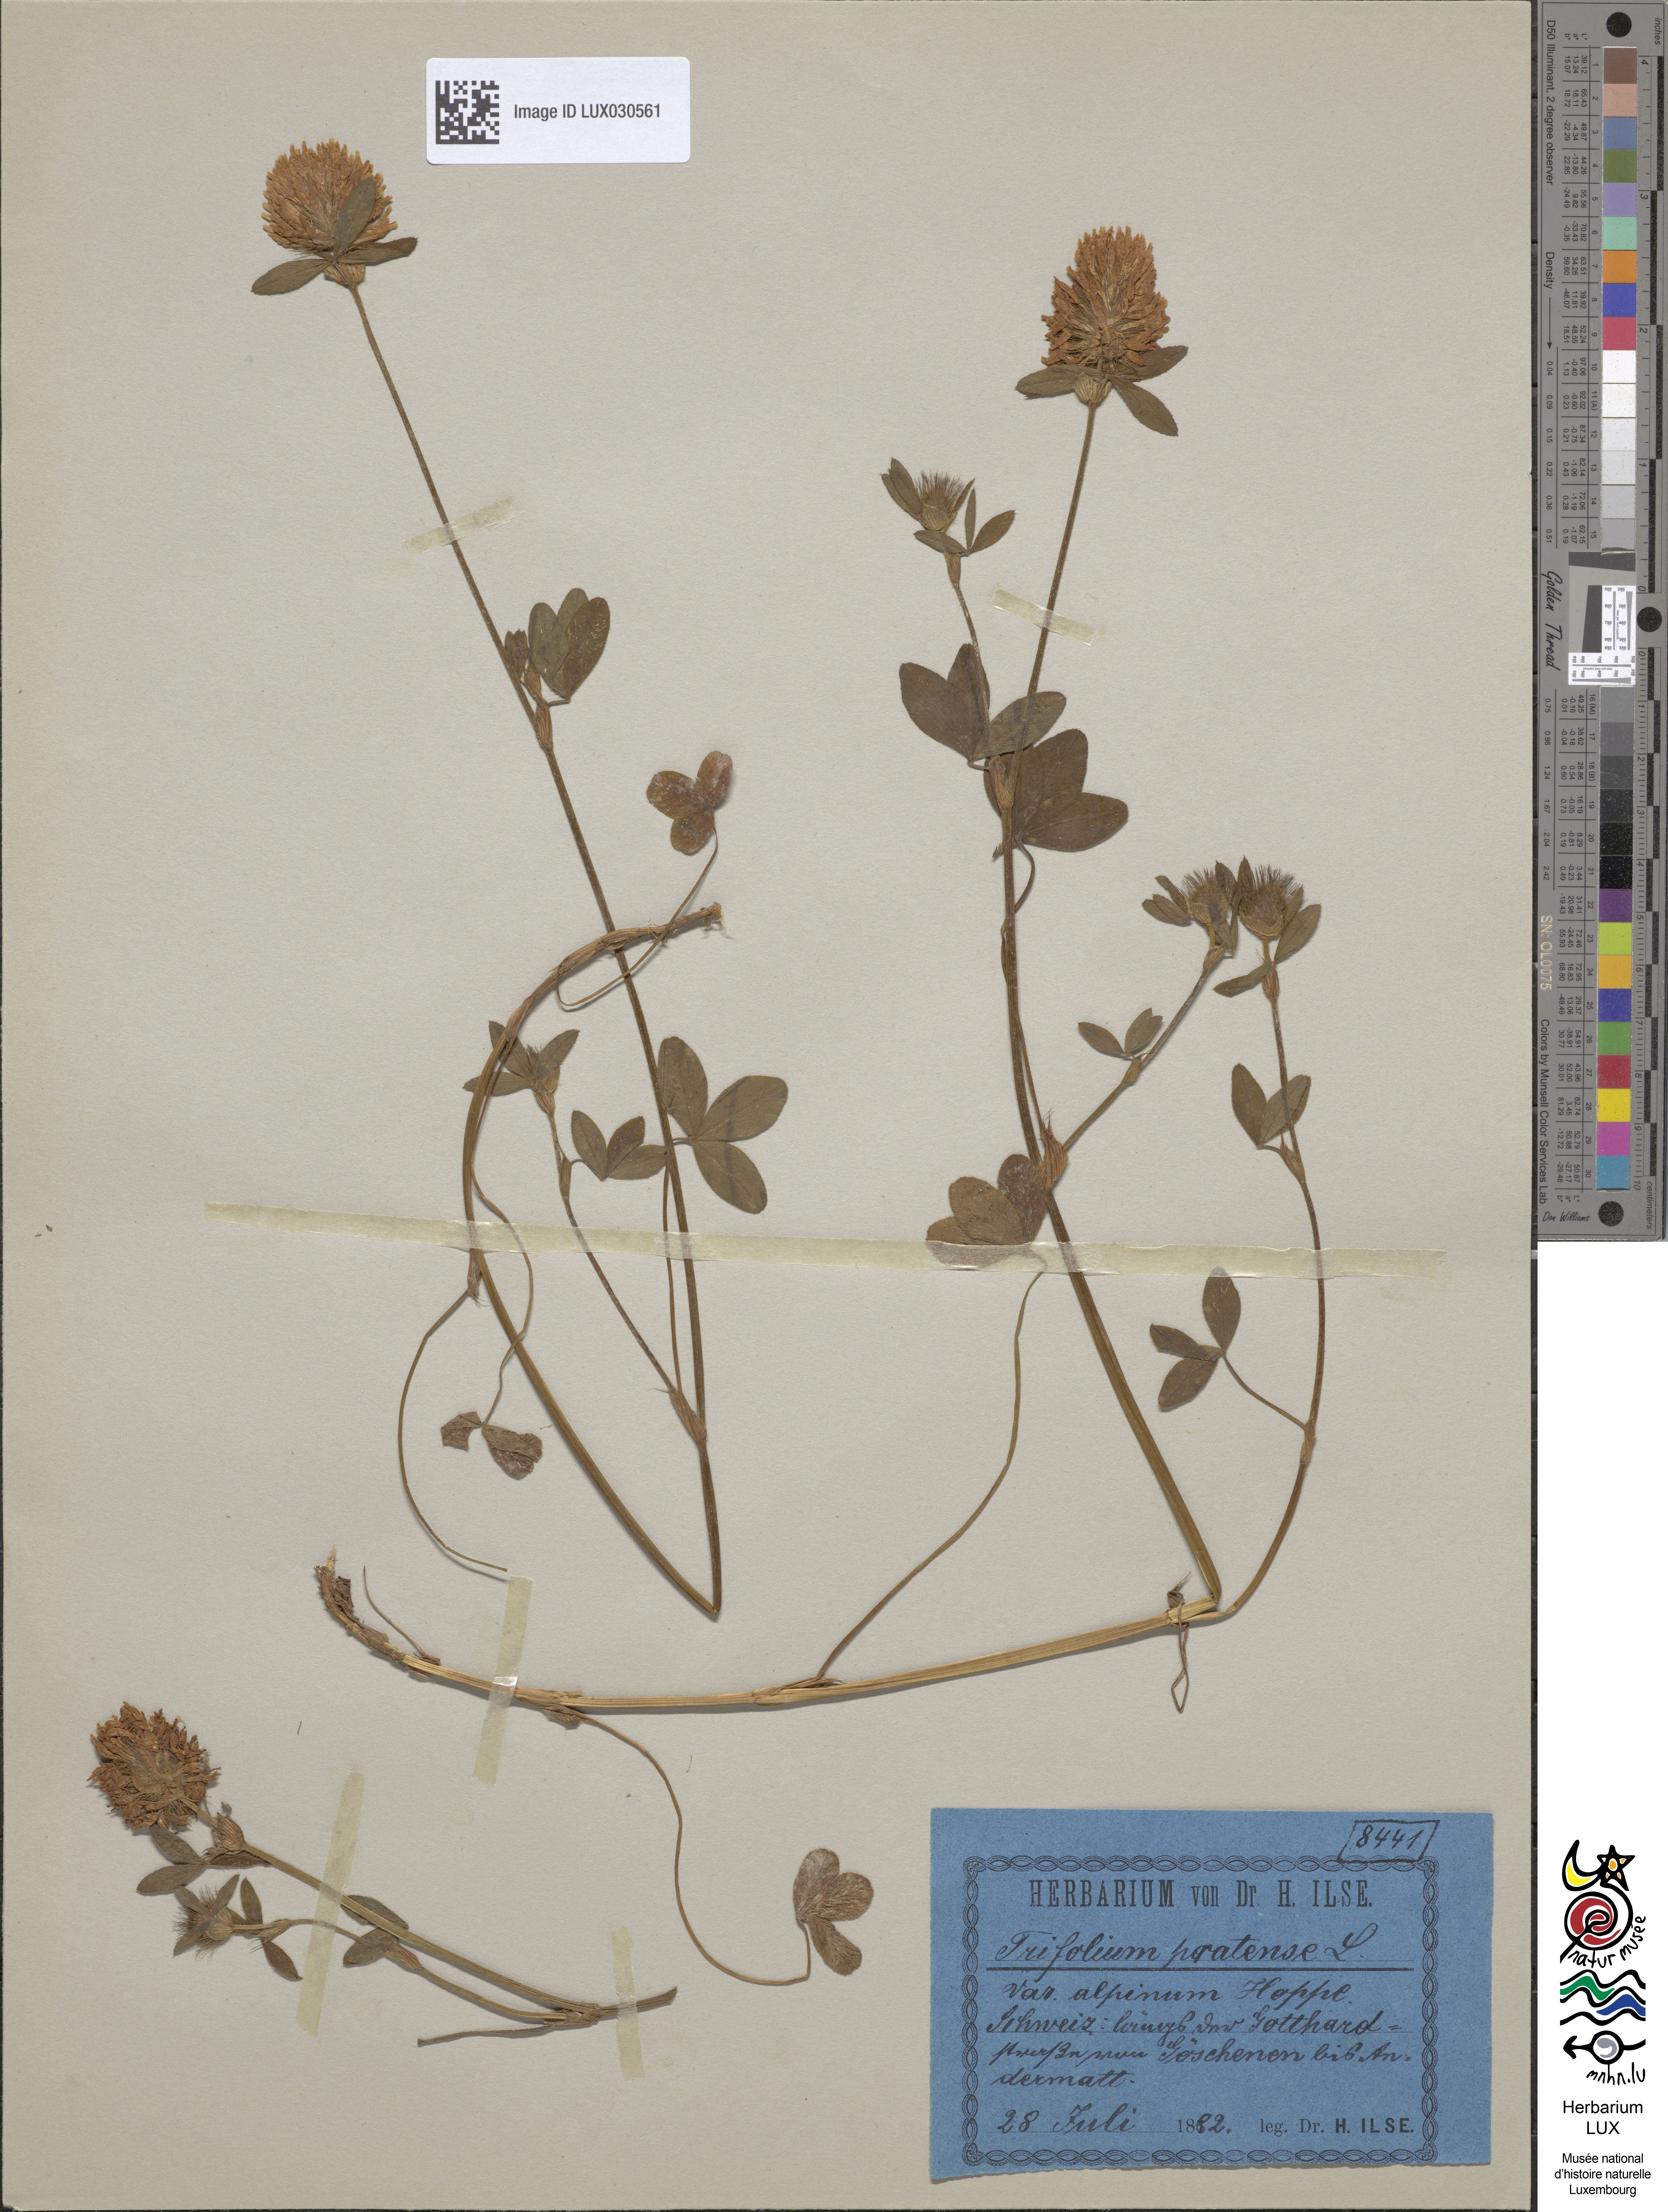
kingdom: Plantae
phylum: Tracheophyta
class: Magnoliopsida
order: Fabales
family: Fabaceae
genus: Trifolium
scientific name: Trifolium pratense
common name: Red clover
